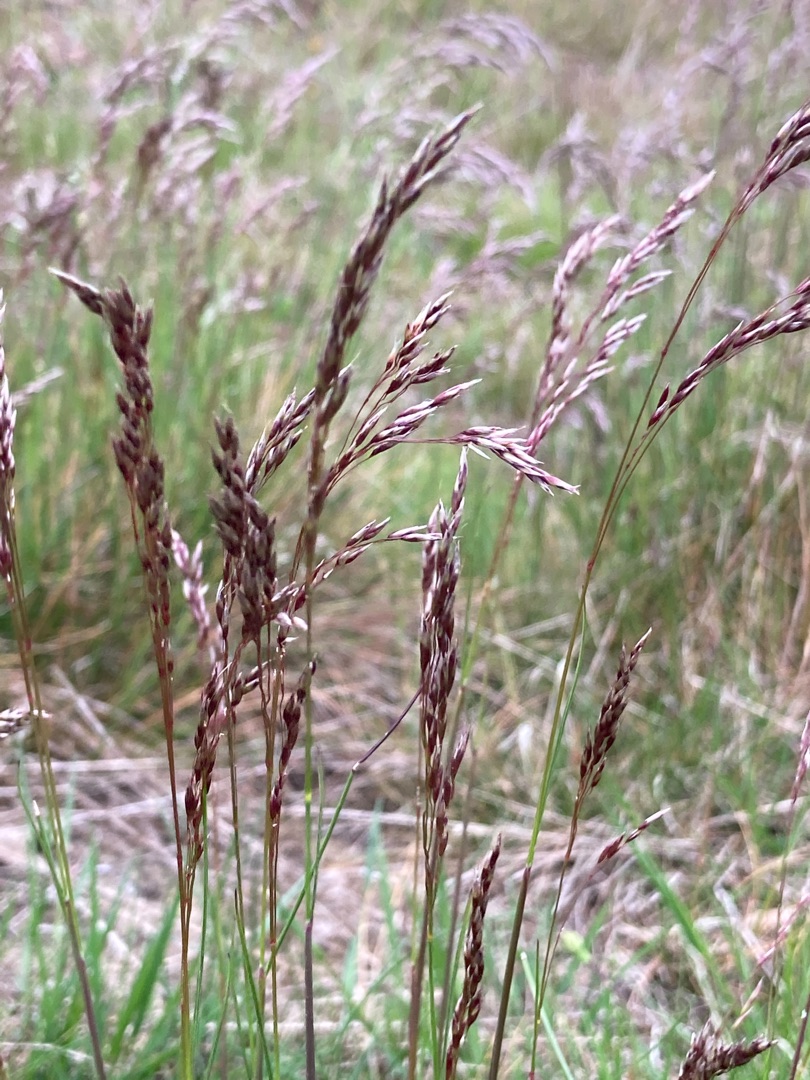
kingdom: Plantae
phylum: Tracheophyta
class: Liliopsida
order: Poales
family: Poaceae
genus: Avenella
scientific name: Avenella flexuosa
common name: Bølget bunke
